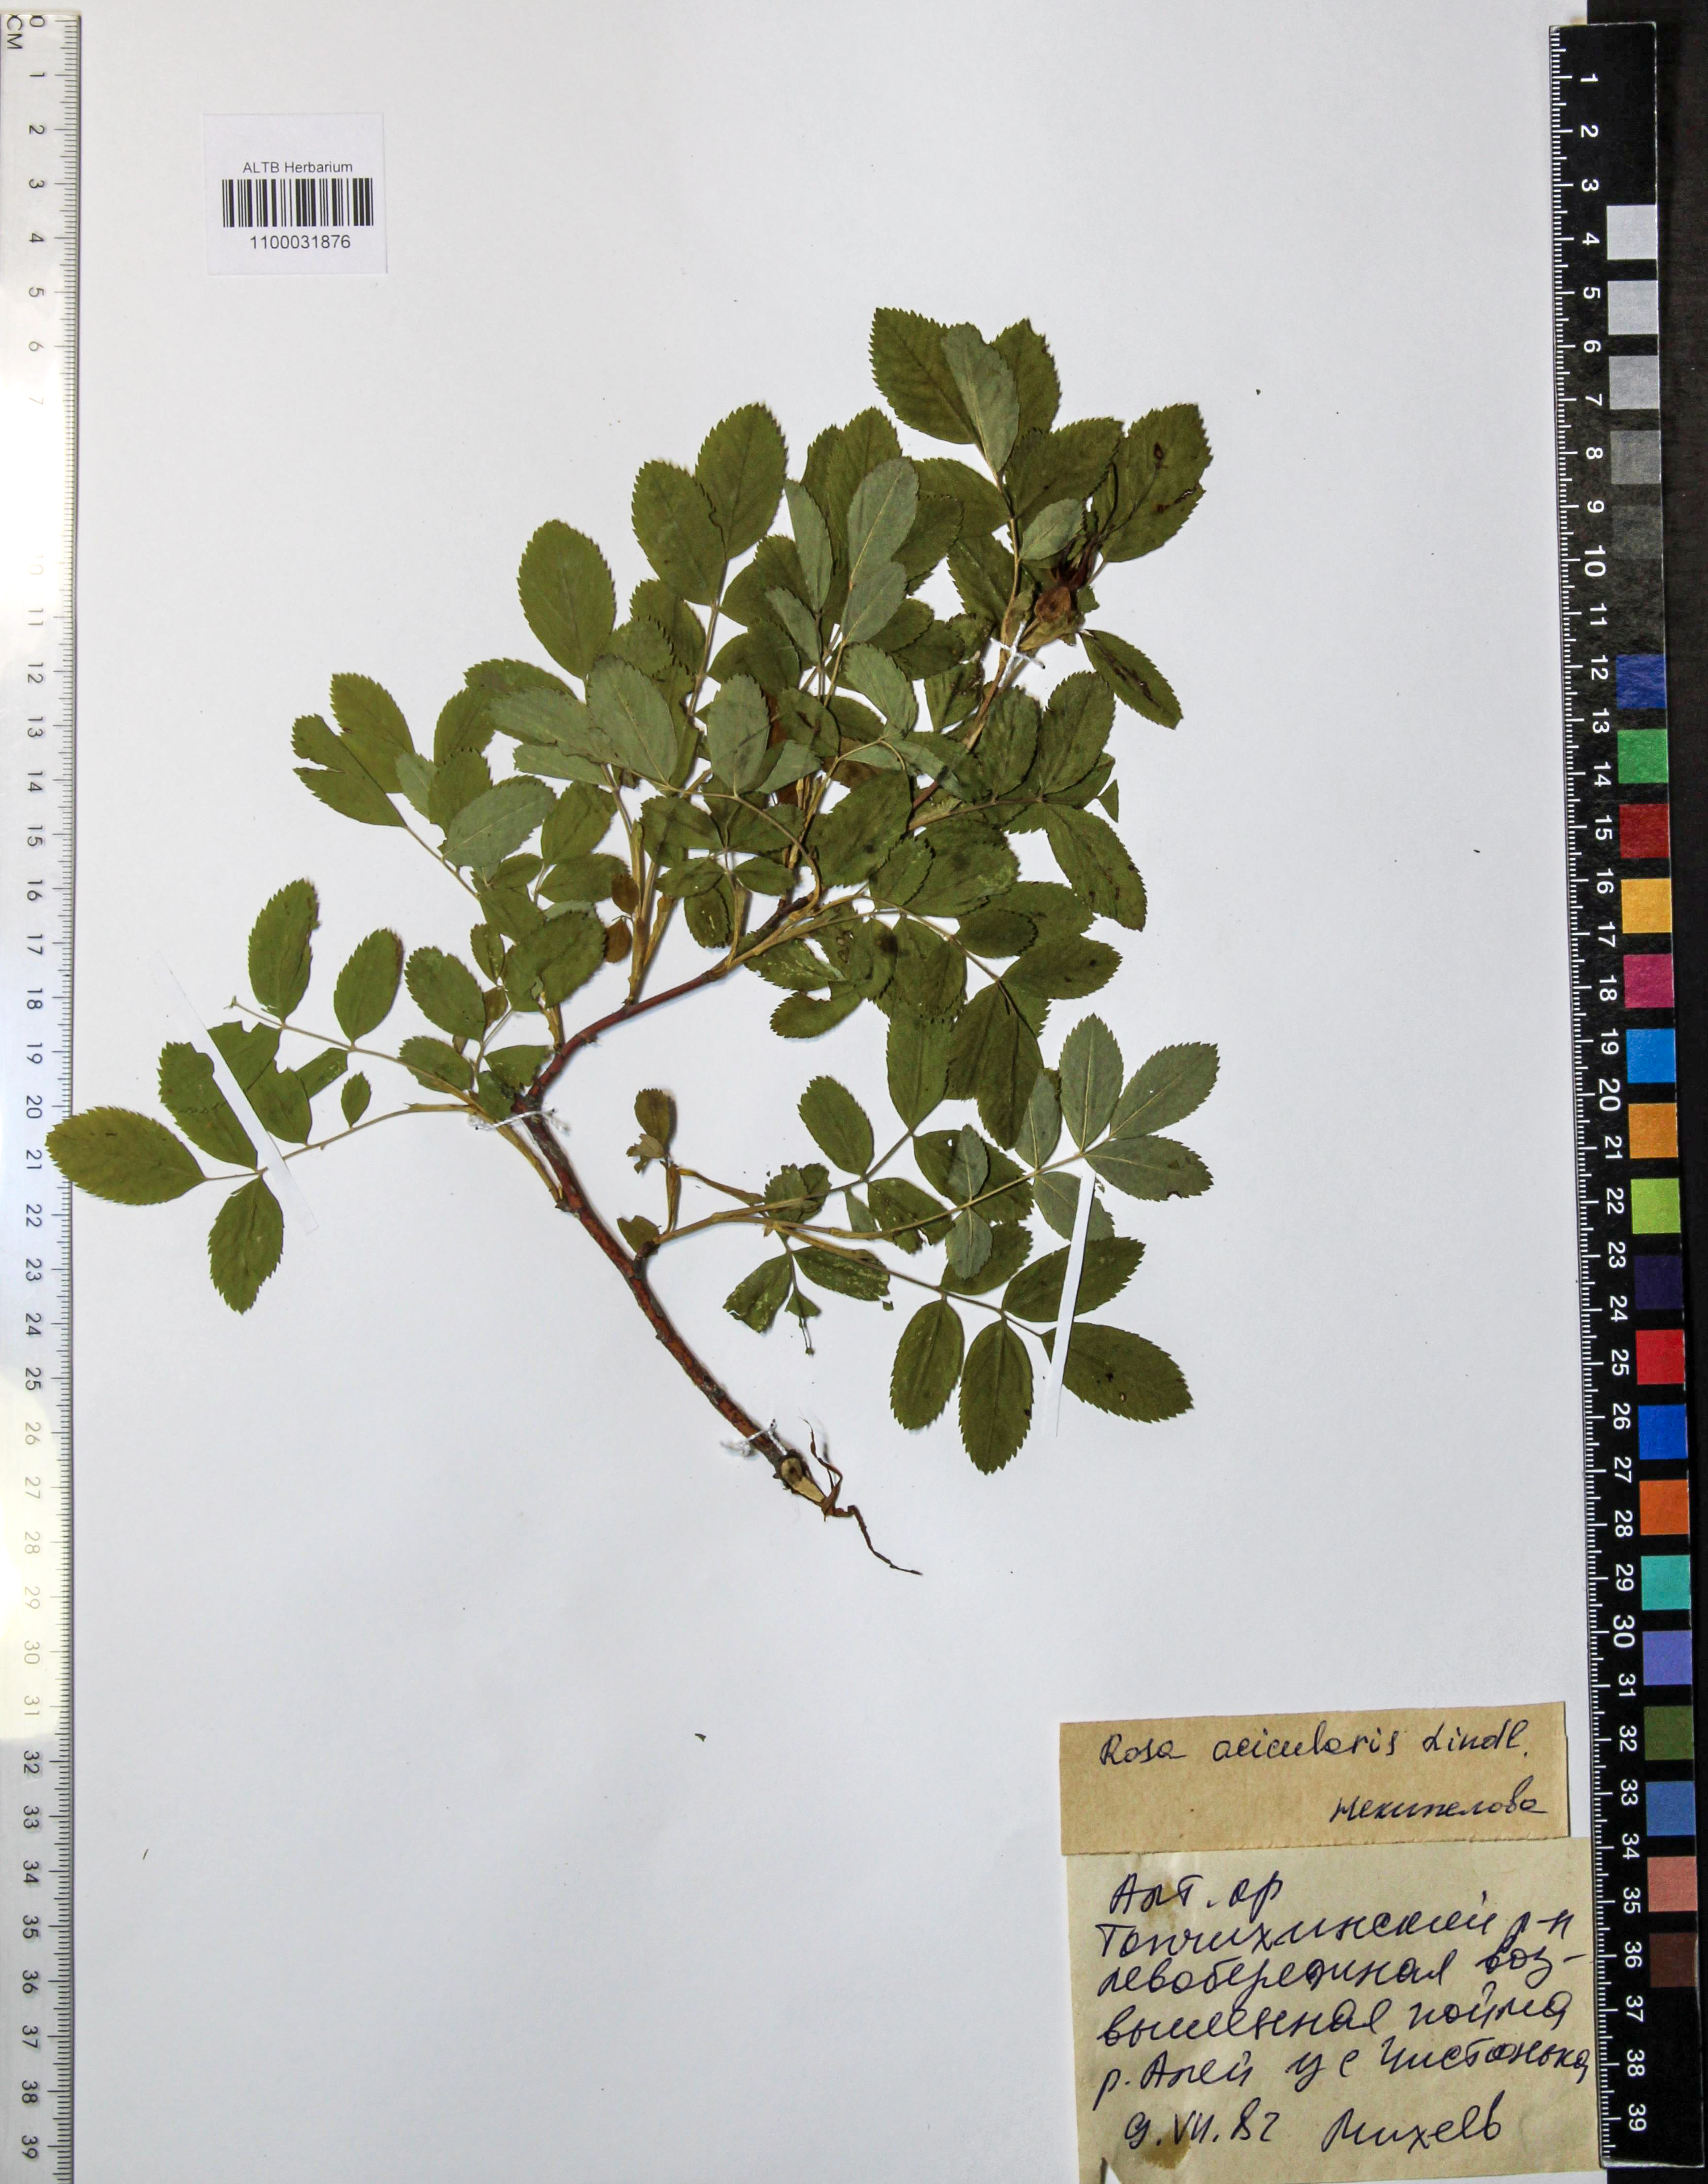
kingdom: Plantae
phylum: Tracheophyta
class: Magnoliopsida
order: Rosales
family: Rosaceae
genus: Rosa
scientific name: Rosa acicularis
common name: Prickly rose
